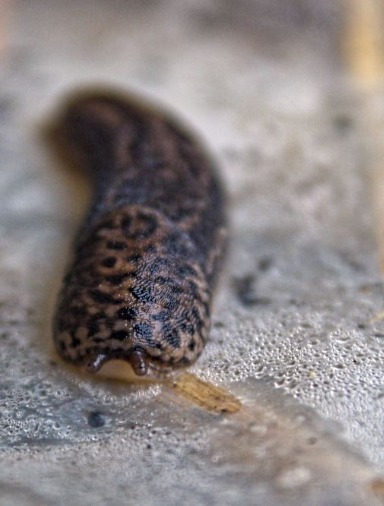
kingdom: Animalia
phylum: Mollusca
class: Gastropoda
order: Stylommatophora
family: Limacidae
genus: Limax
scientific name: Limax maximus
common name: Pantersnegl
